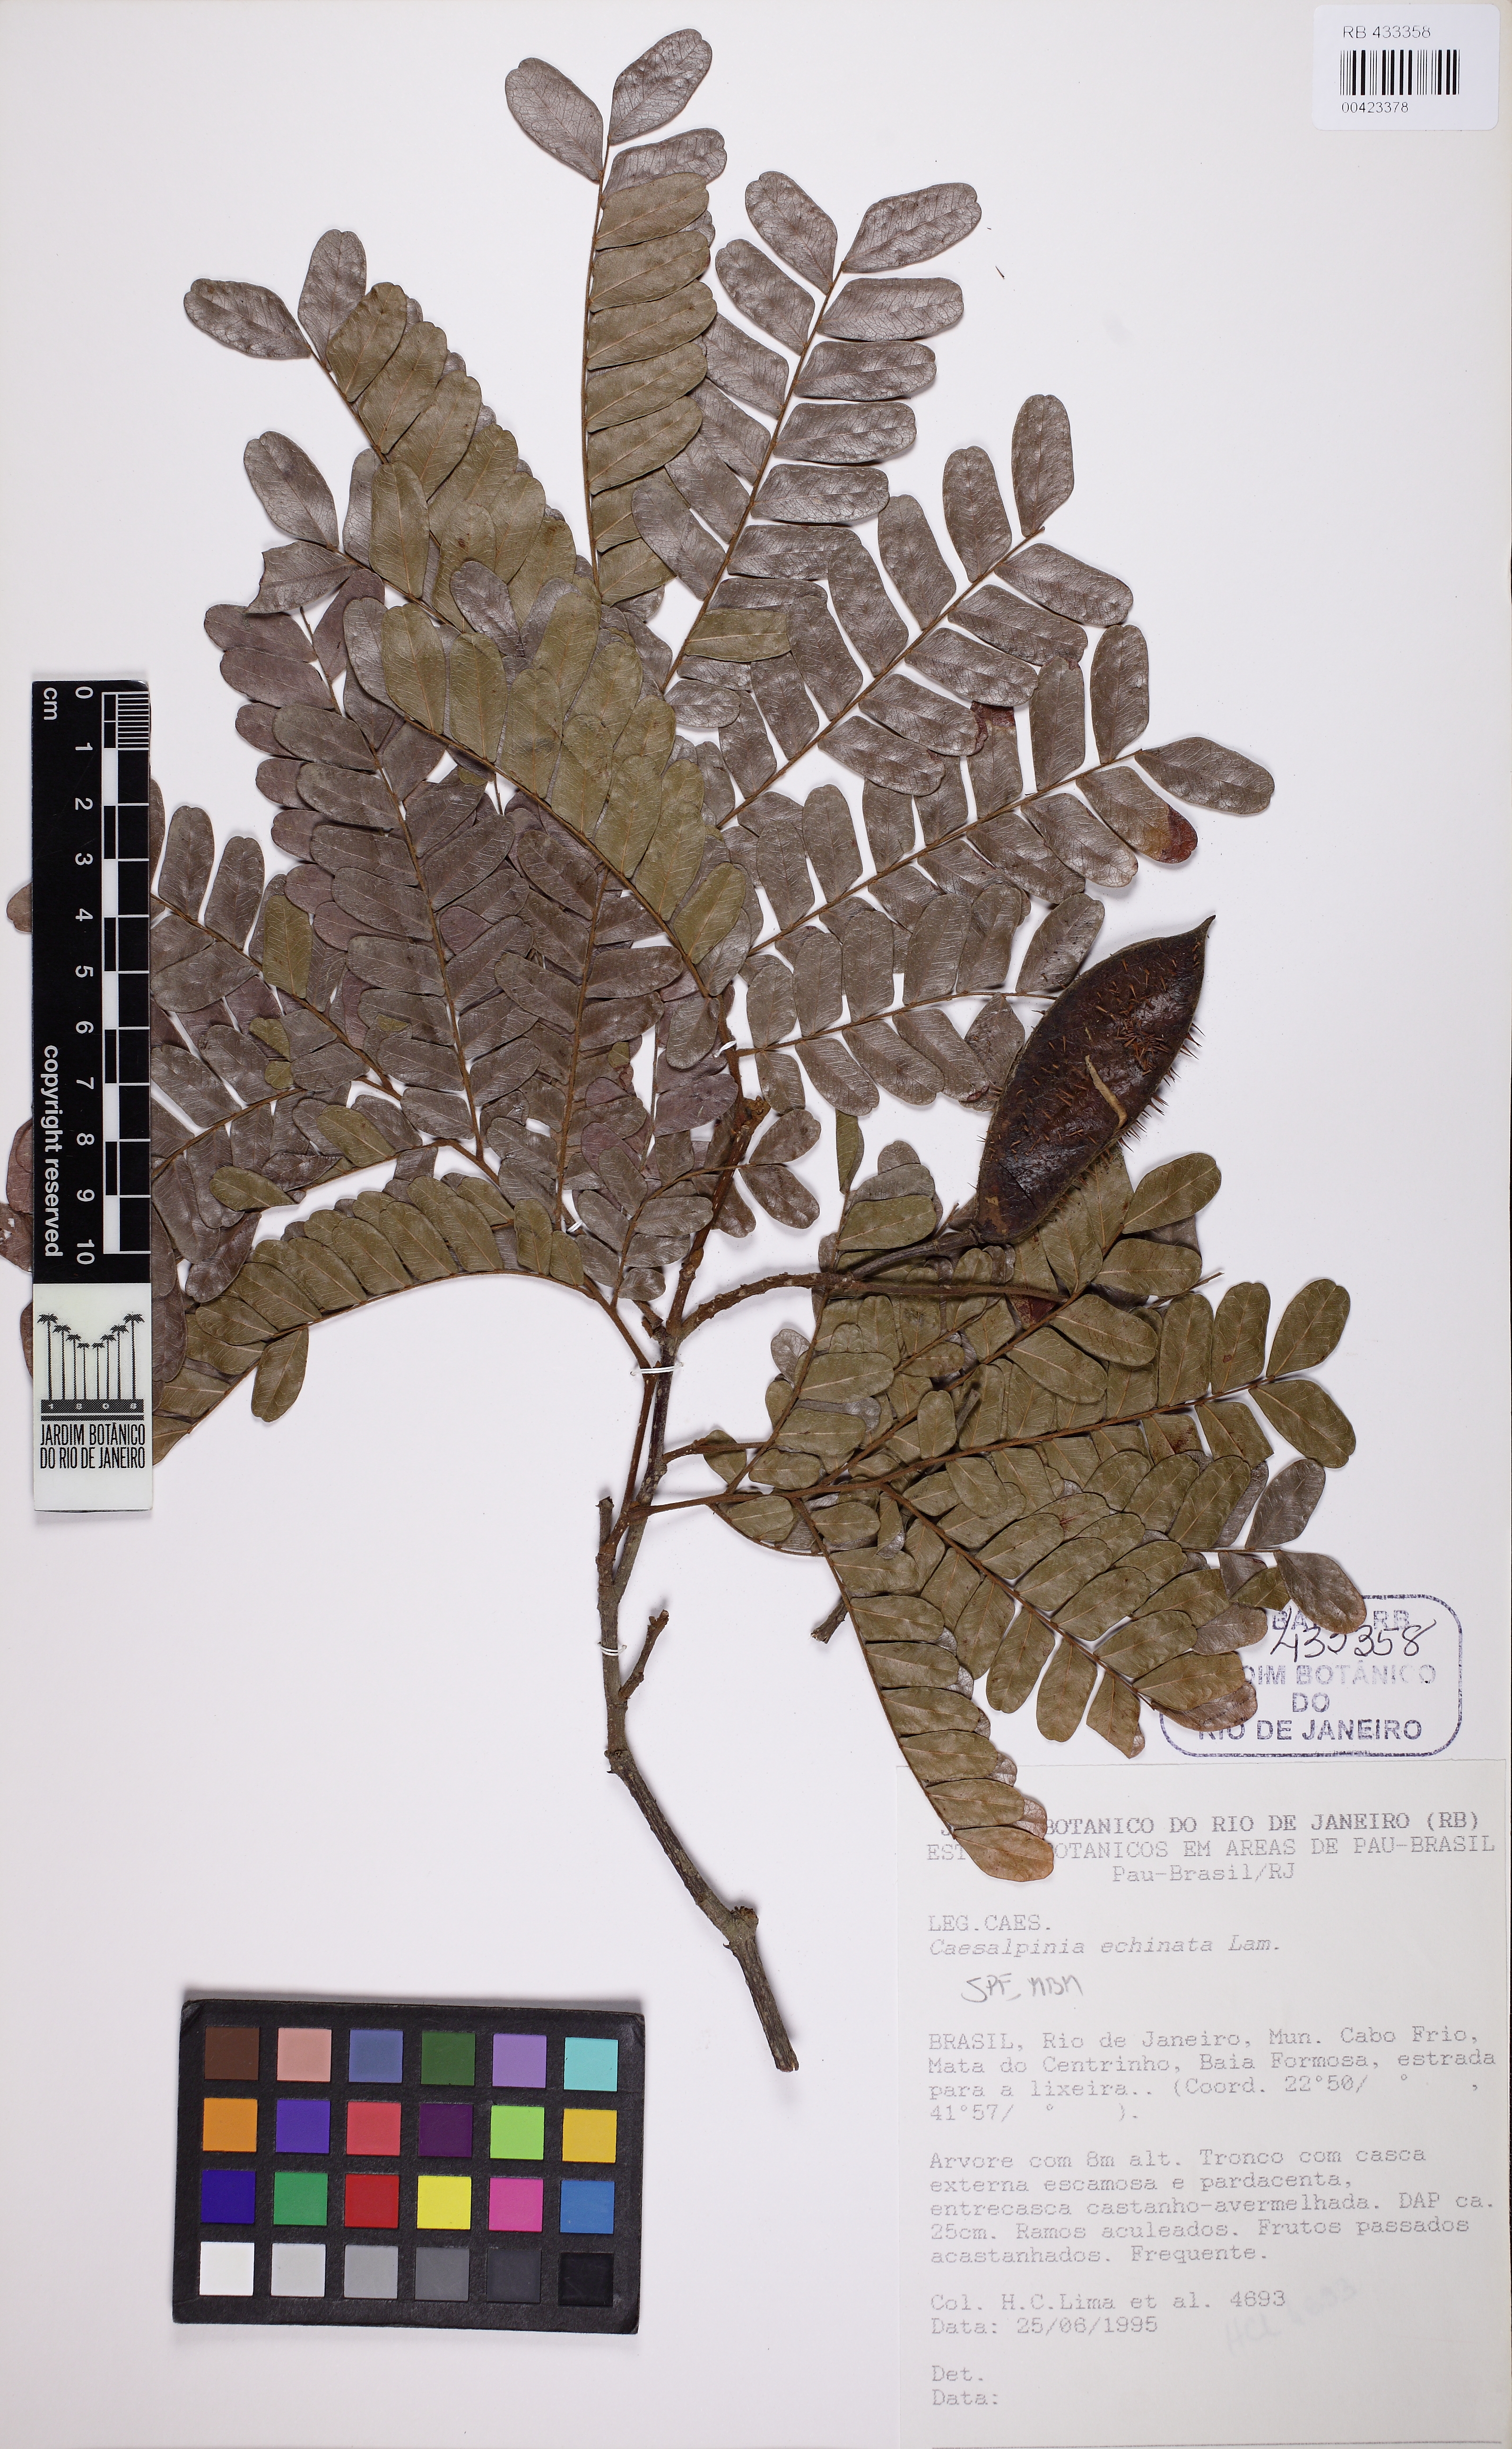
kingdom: Plantae
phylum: Tracheophyta
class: Magnoliopsida
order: Fabales
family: Fabaceae
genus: Paubrasilia
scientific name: Paubrasilia echinata
